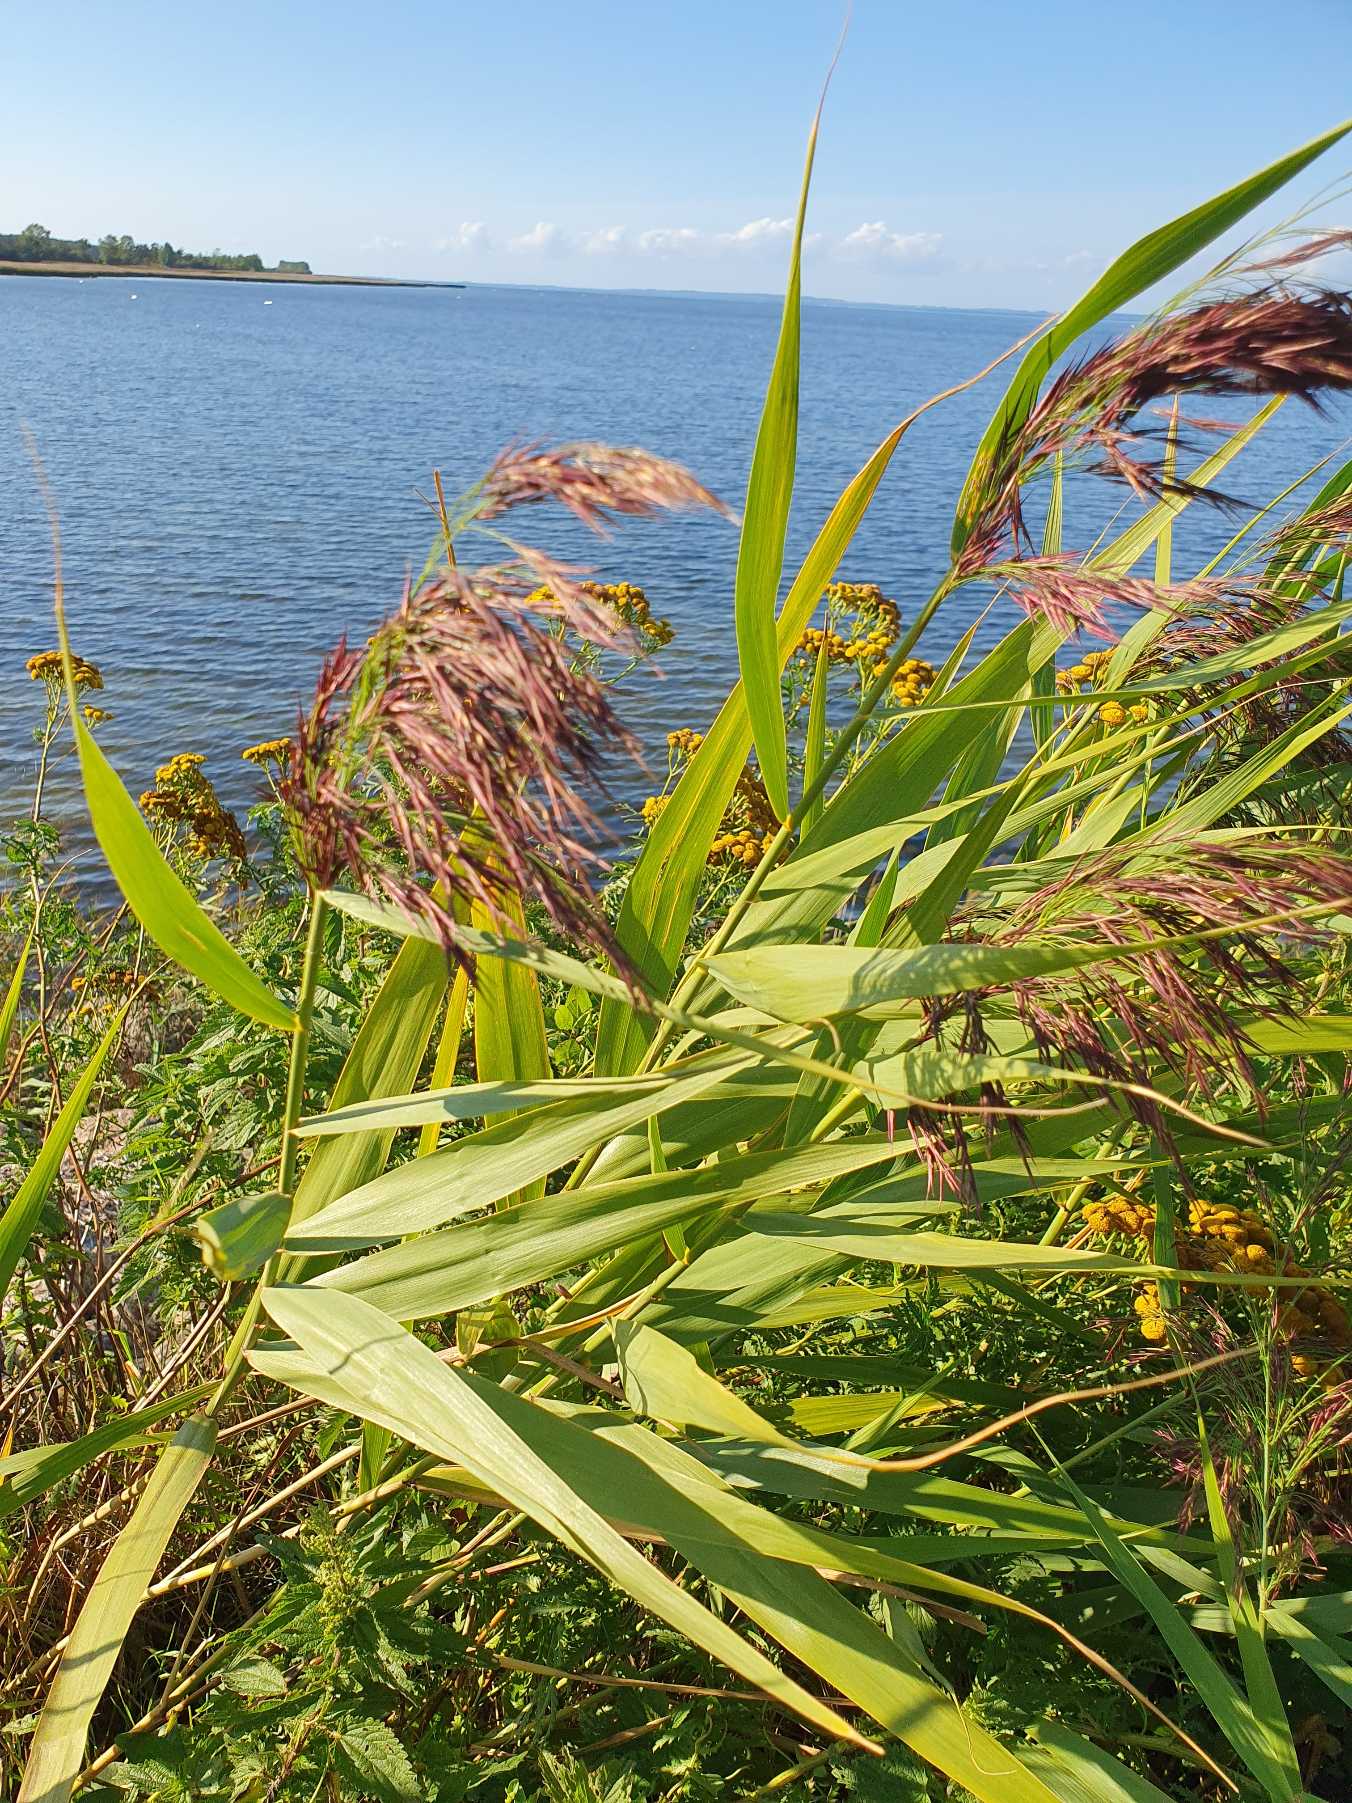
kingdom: Plantae
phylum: Tracheophyta
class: Liliopsida
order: Poales
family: Poaceae
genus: Phragmites
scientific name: Phragmites australis
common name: Tagrør
